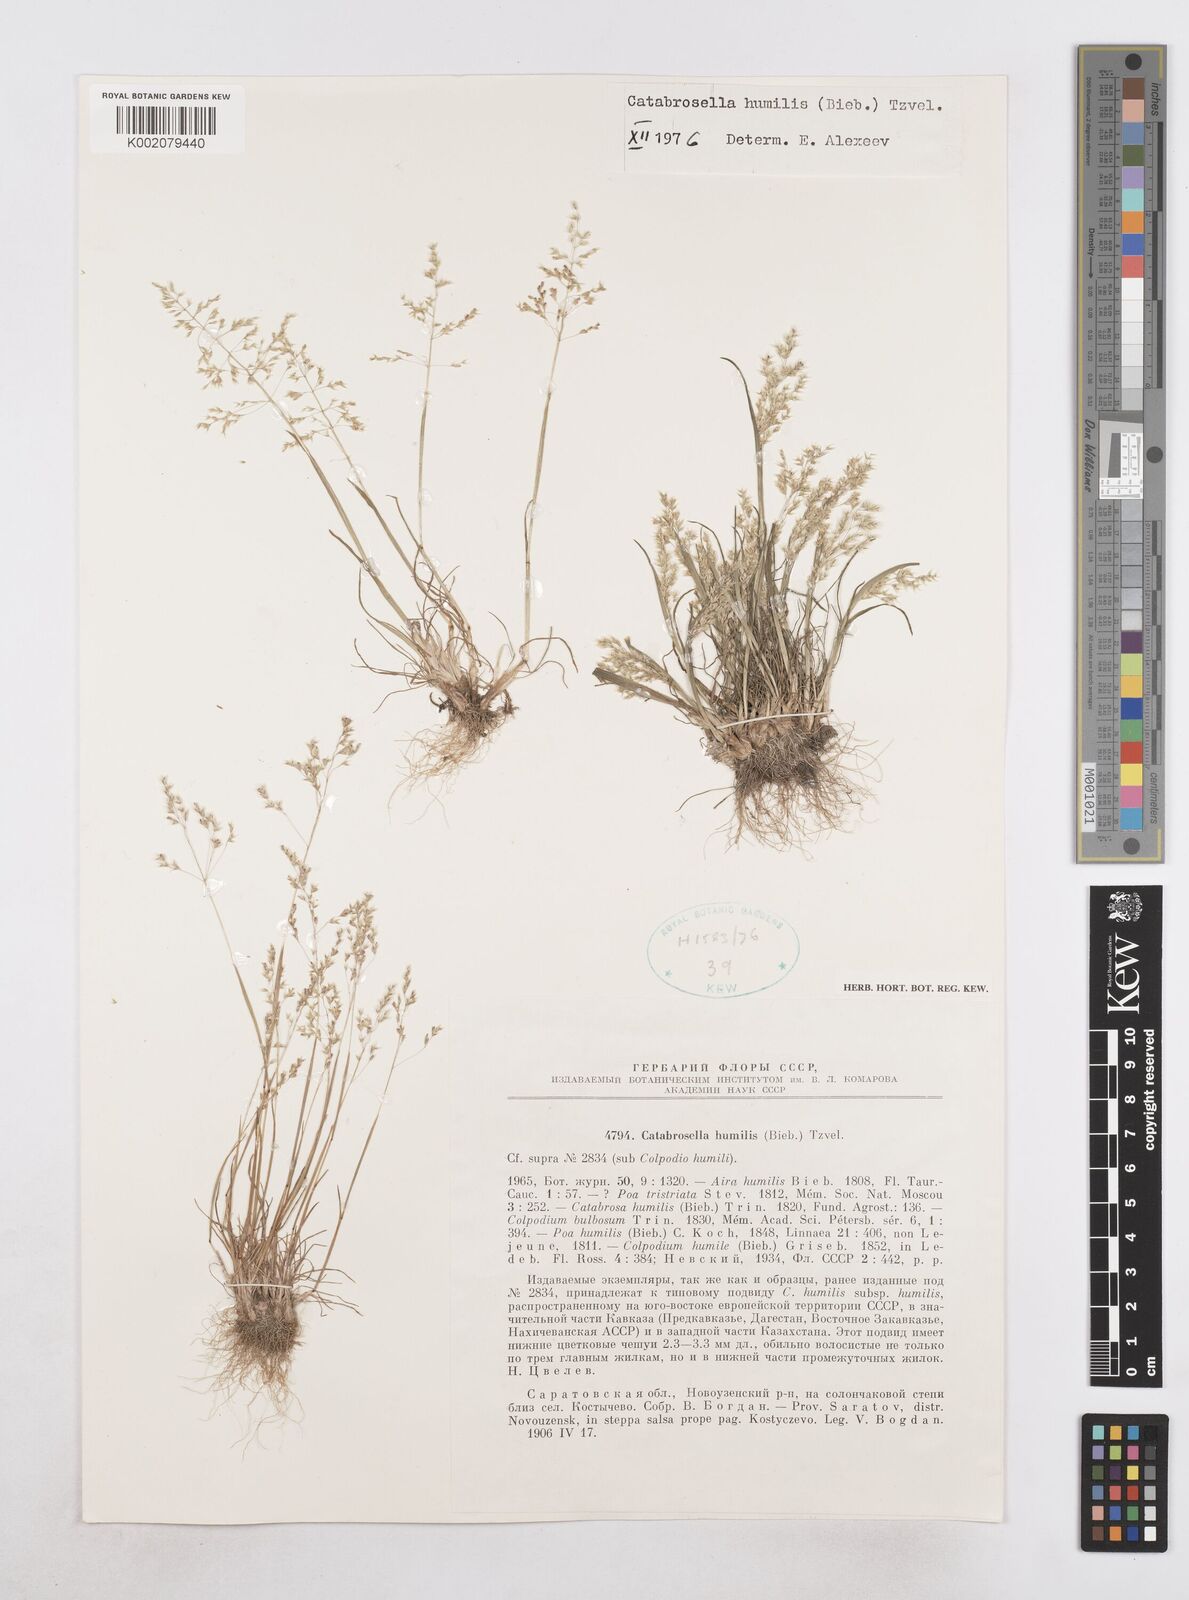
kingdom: Plantae
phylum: Tracheophyta
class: Liliopsida
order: Poales
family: Poaceae
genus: Catabrosella
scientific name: Catabrosella humilis
